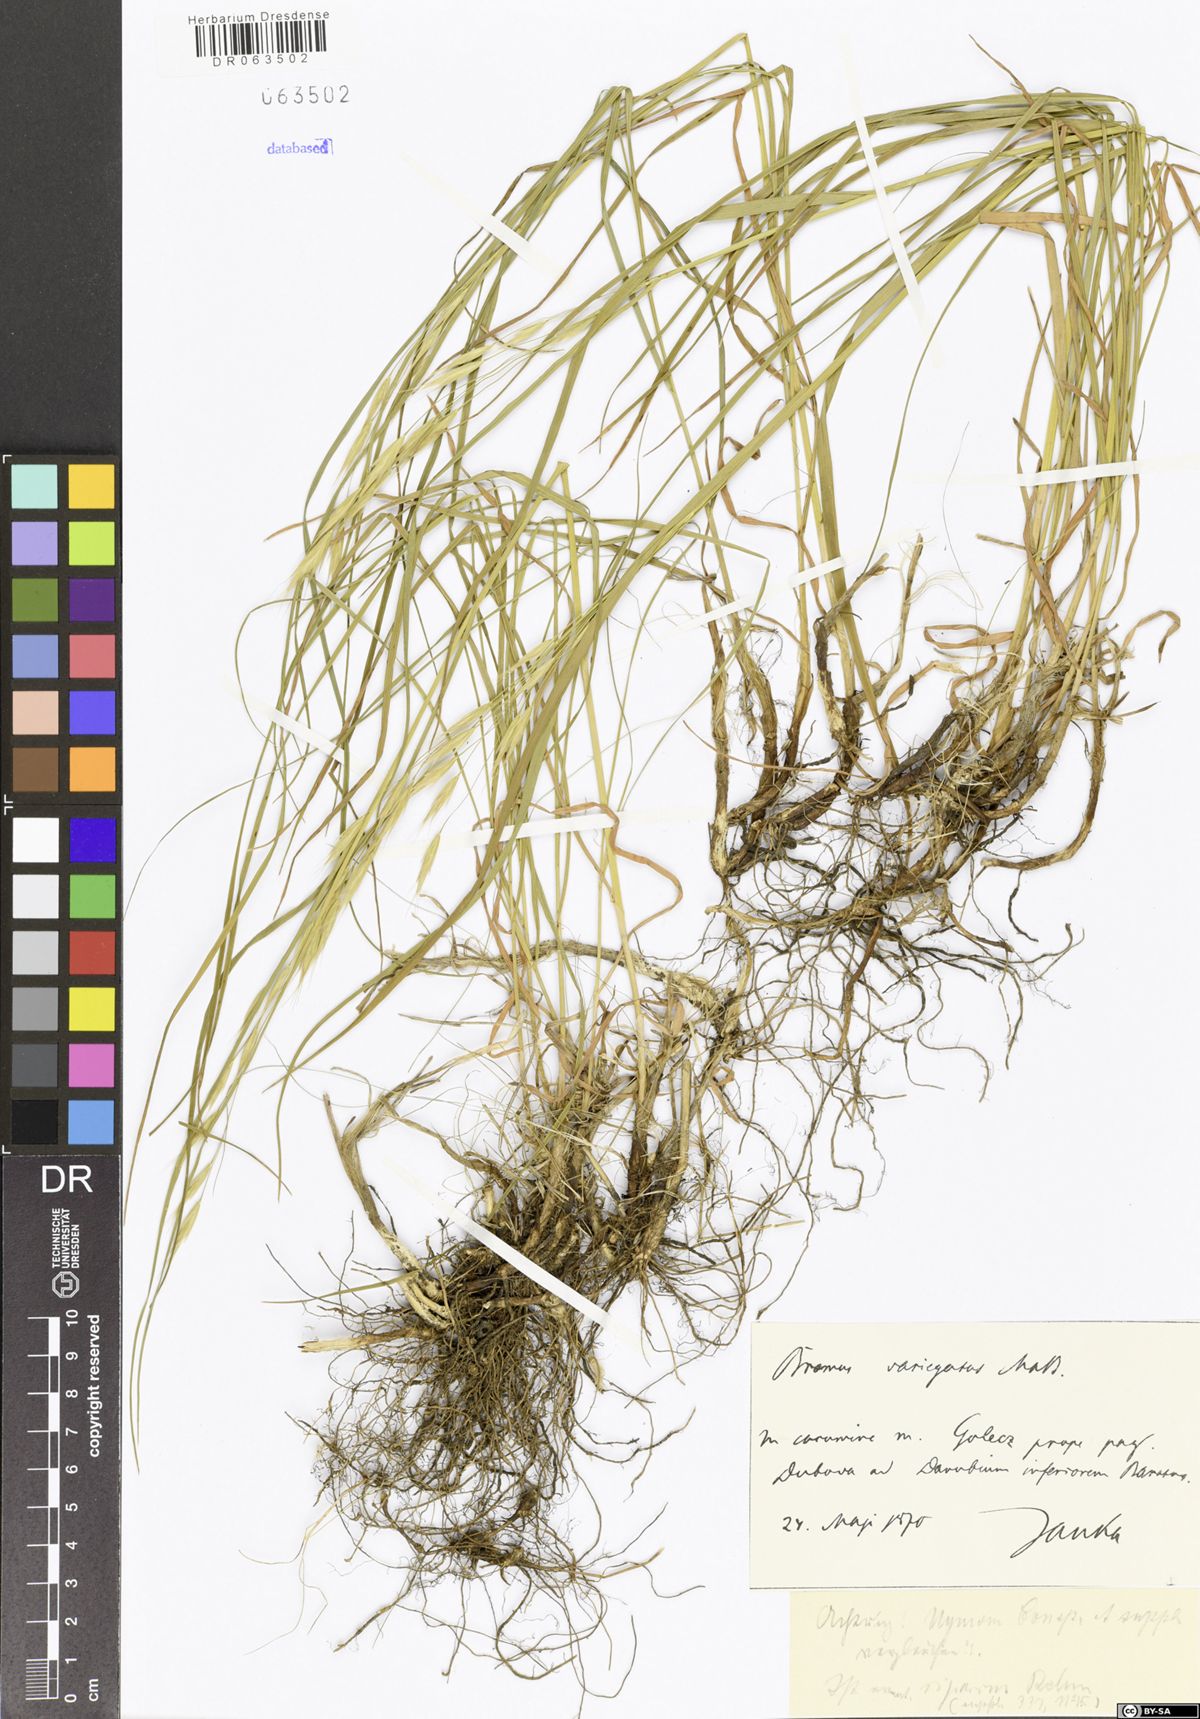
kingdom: Plantae
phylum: Tracheophyta
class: Liliopsida
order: Poales
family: Poaceae
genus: Bromus
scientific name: Bromus variegatus
